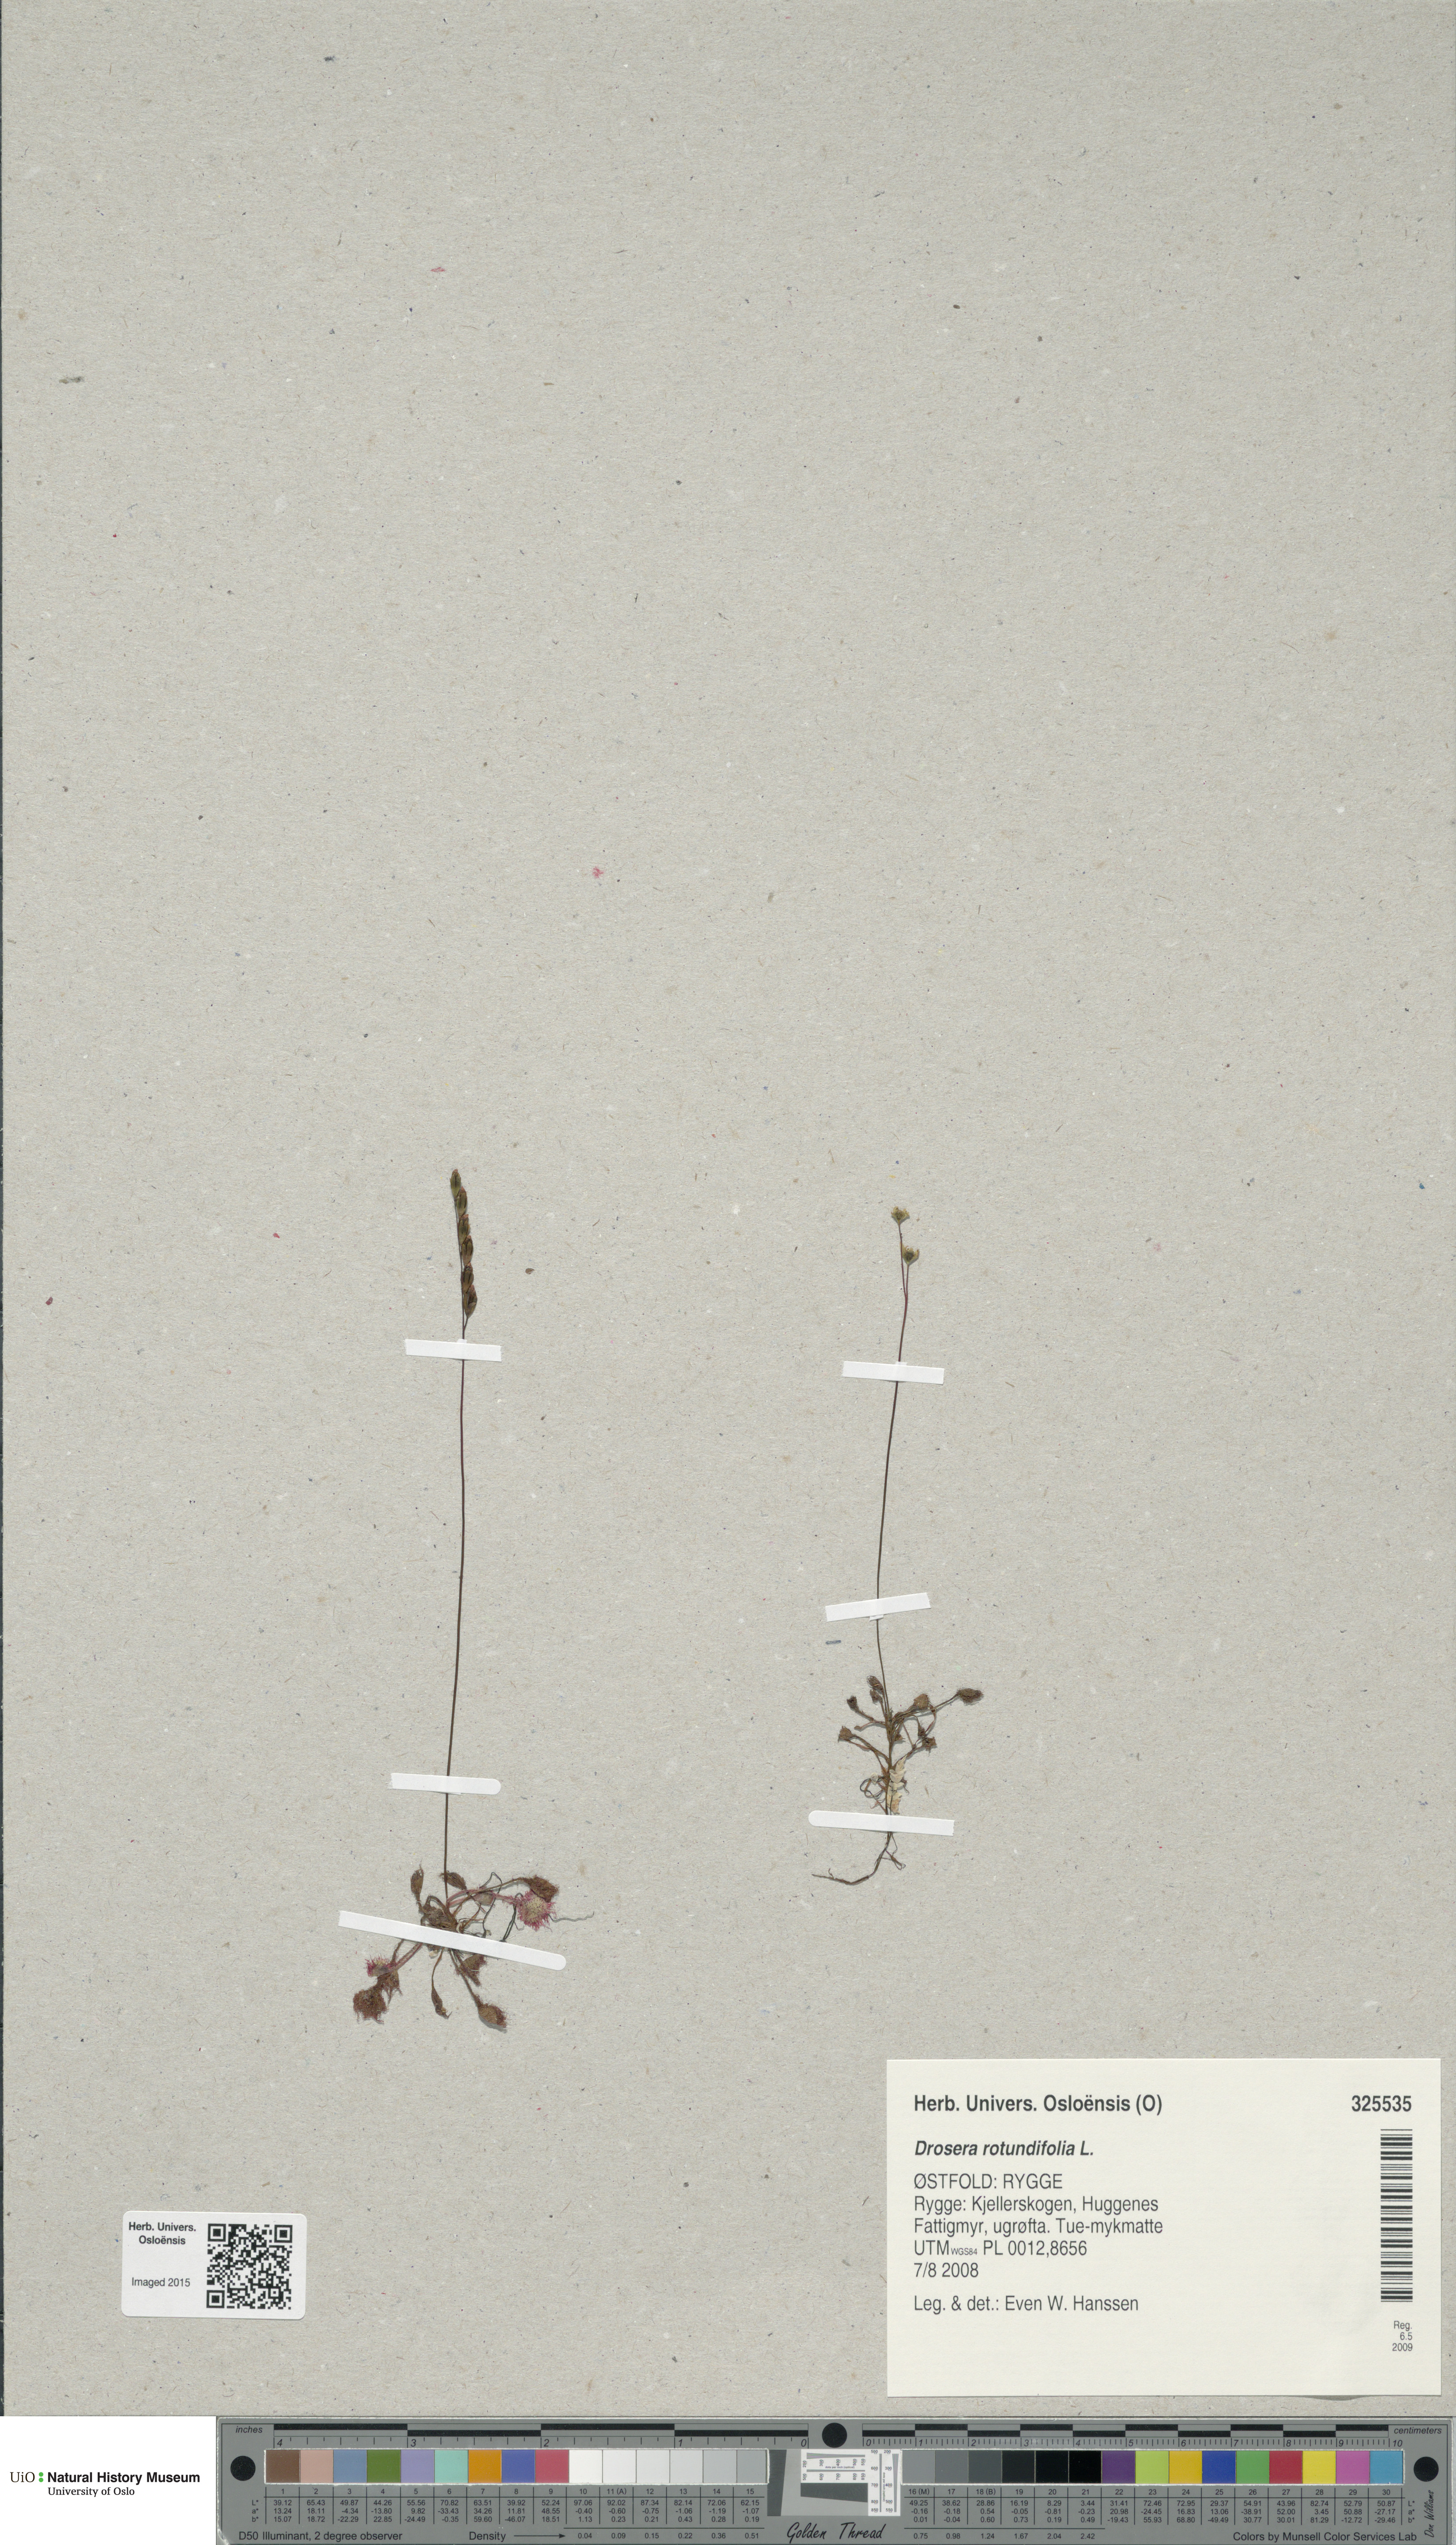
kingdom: Plantae
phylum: Tracheophyta
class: Magnoliopsida
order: Caryophyllales
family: Droseraceae
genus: Drosera
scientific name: Drosera rotundifolia
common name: Round-leaved sundew
